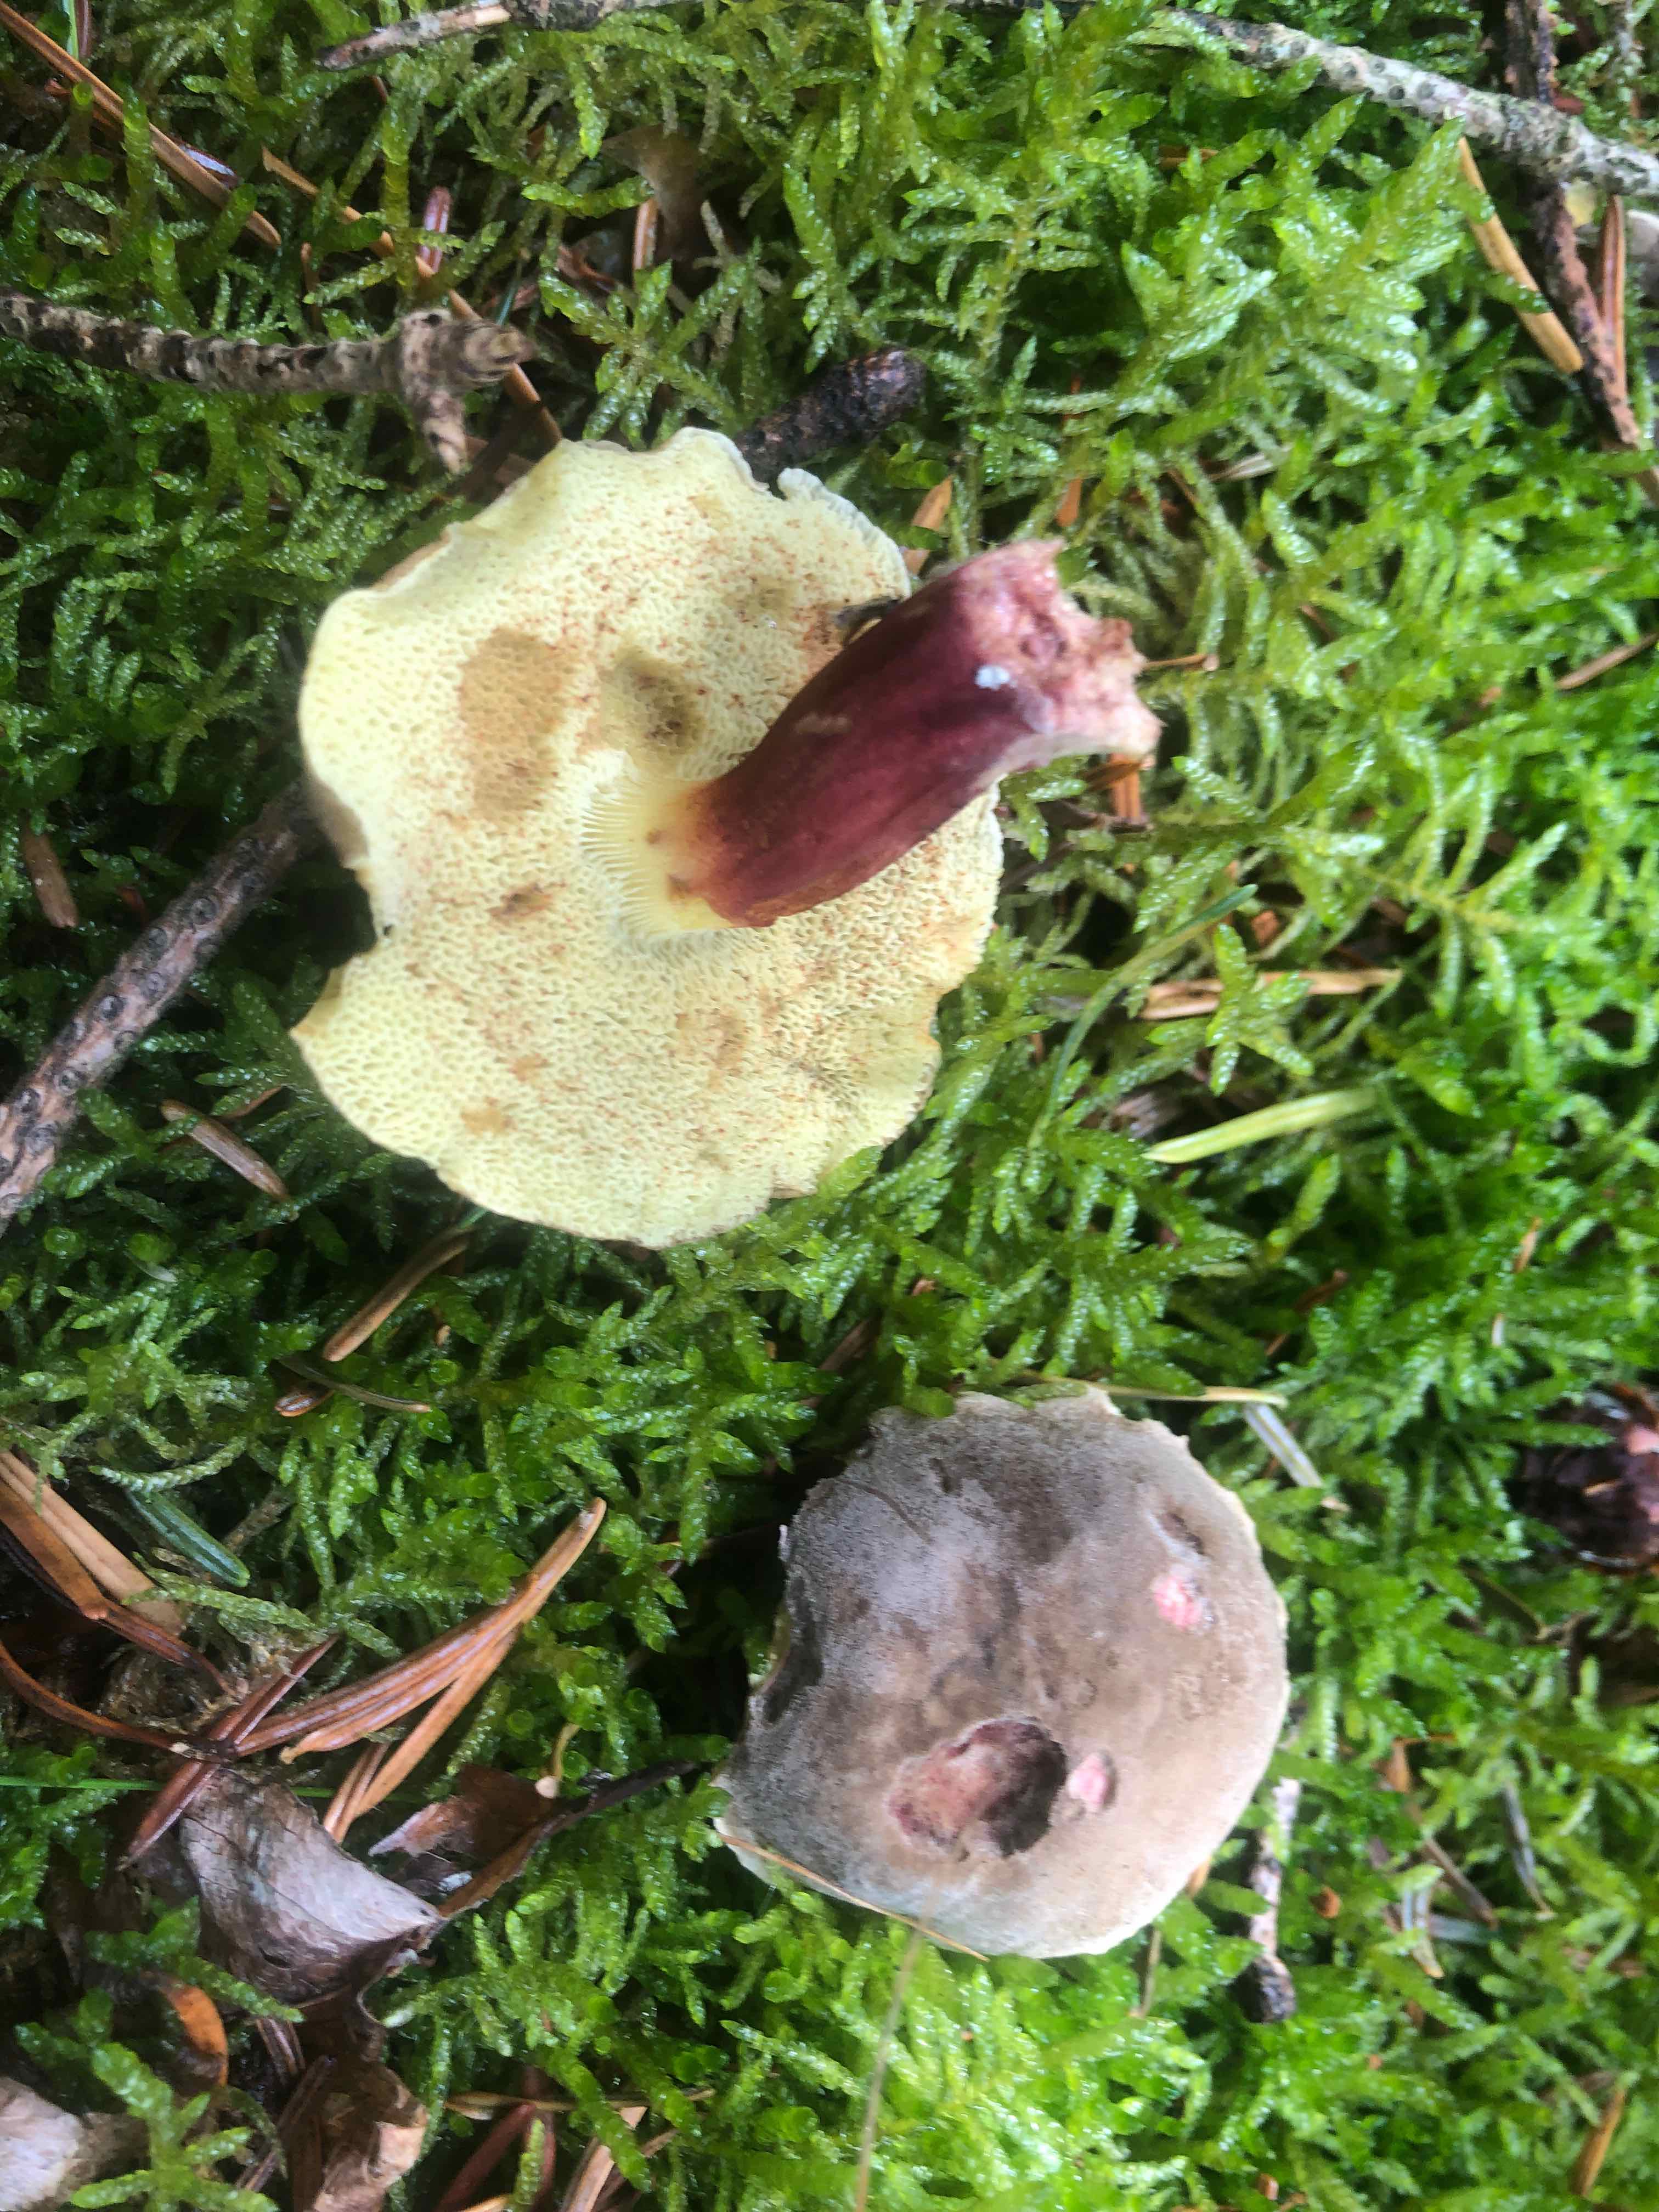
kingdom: Fungi
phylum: Basidiomycota
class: Agaricomycetes
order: Boletales
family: Boletaceae
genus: Xerocomellus
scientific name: Xerocomellus chrysenteron
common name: rødsprukken rørhat
